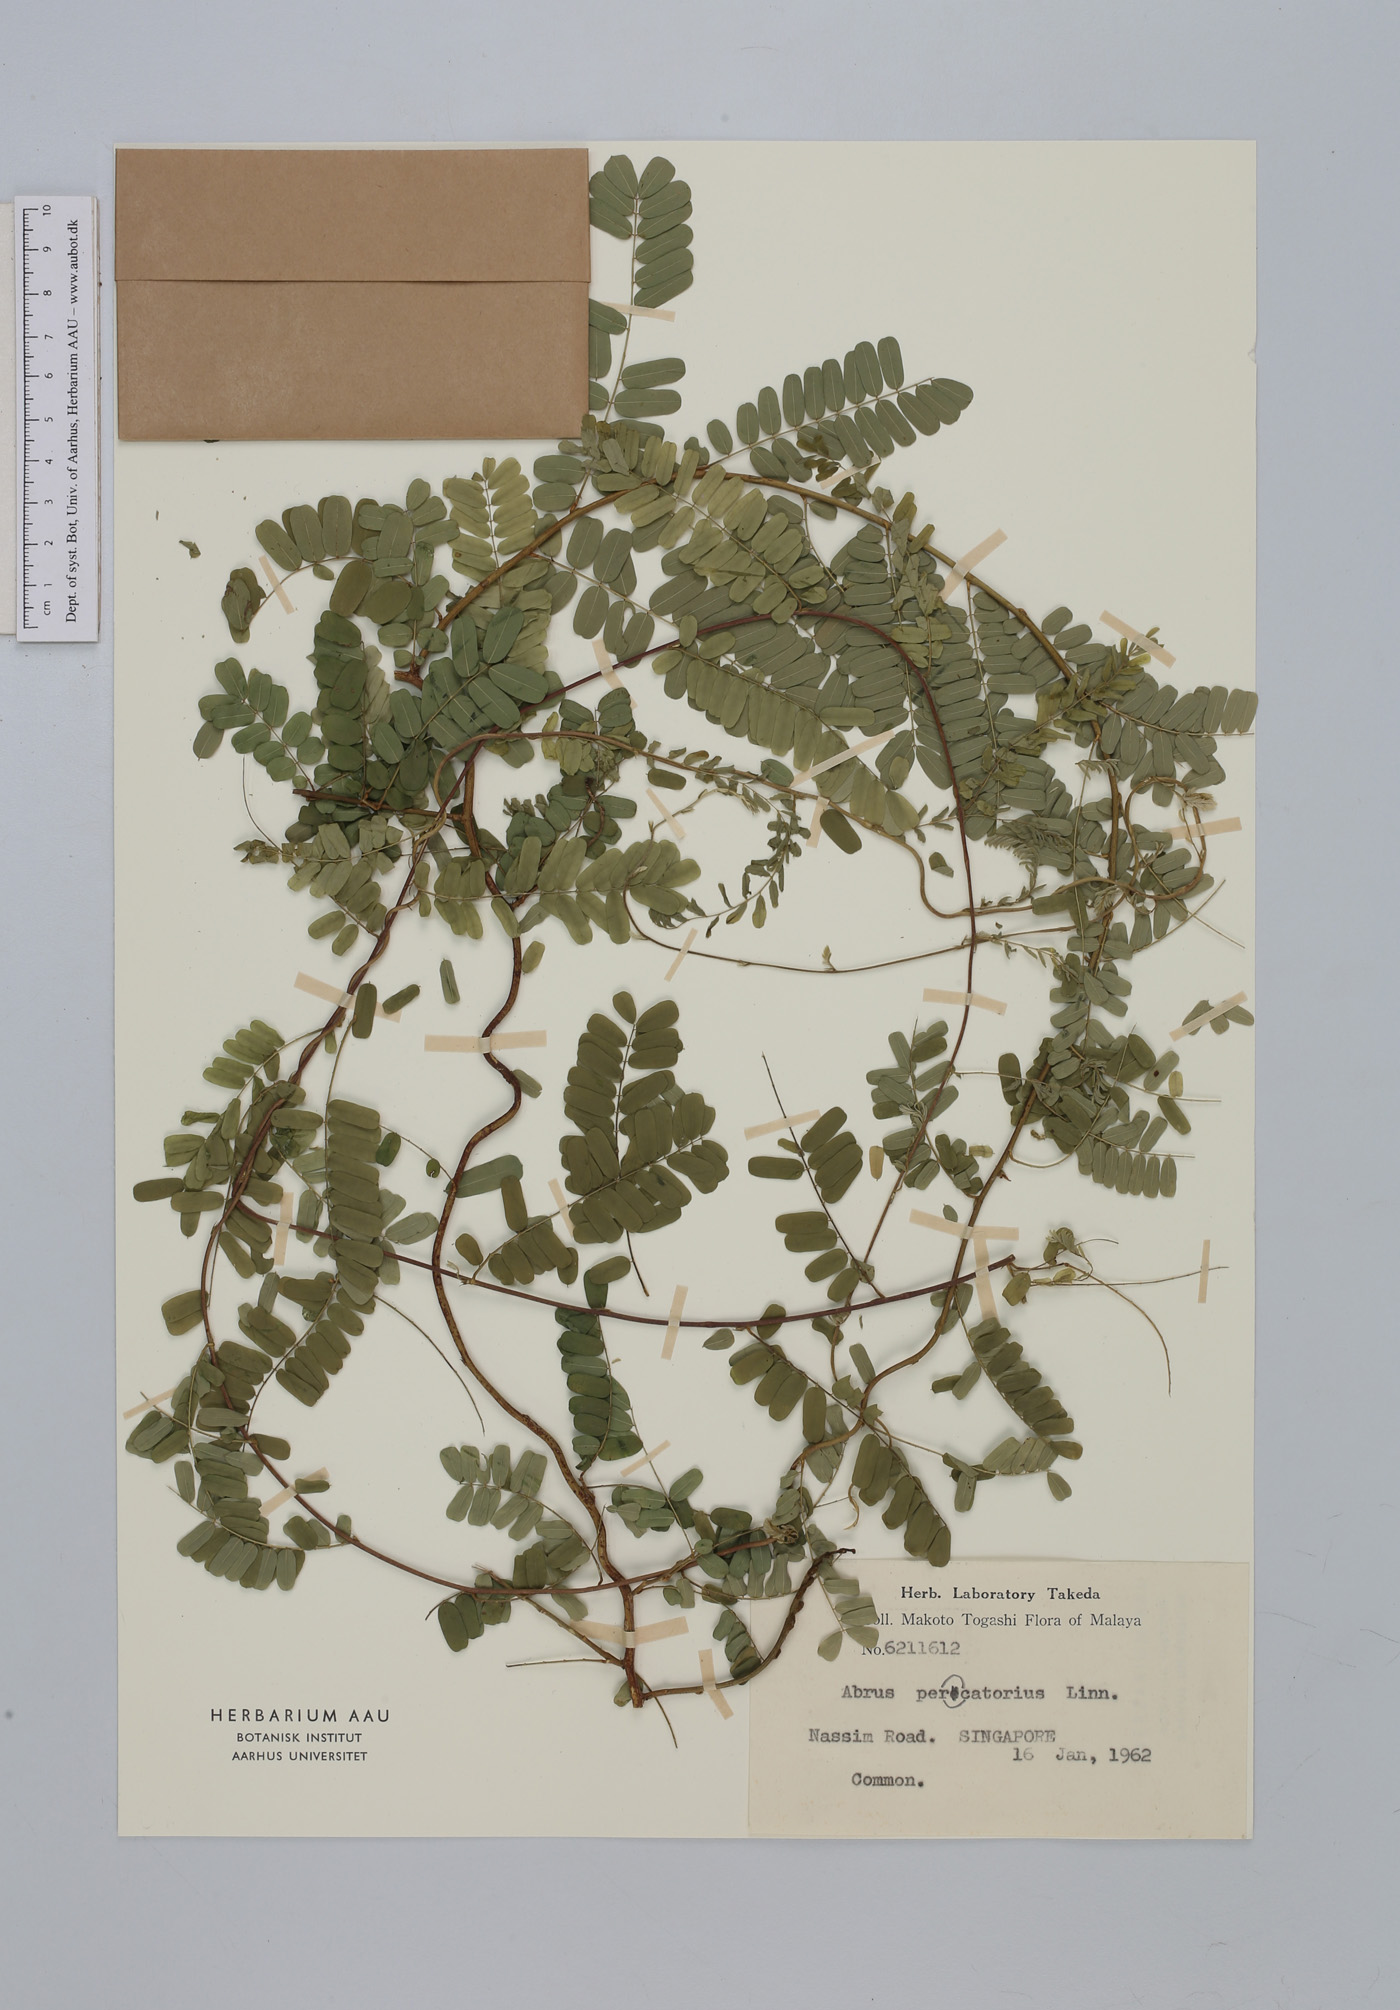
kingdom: Plantae
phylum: Tracheophyta
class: Magnoliopsida
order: Fabales
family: Fabaceae
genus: Abrus
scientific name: Abrus precatorius
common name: Rosarypea
